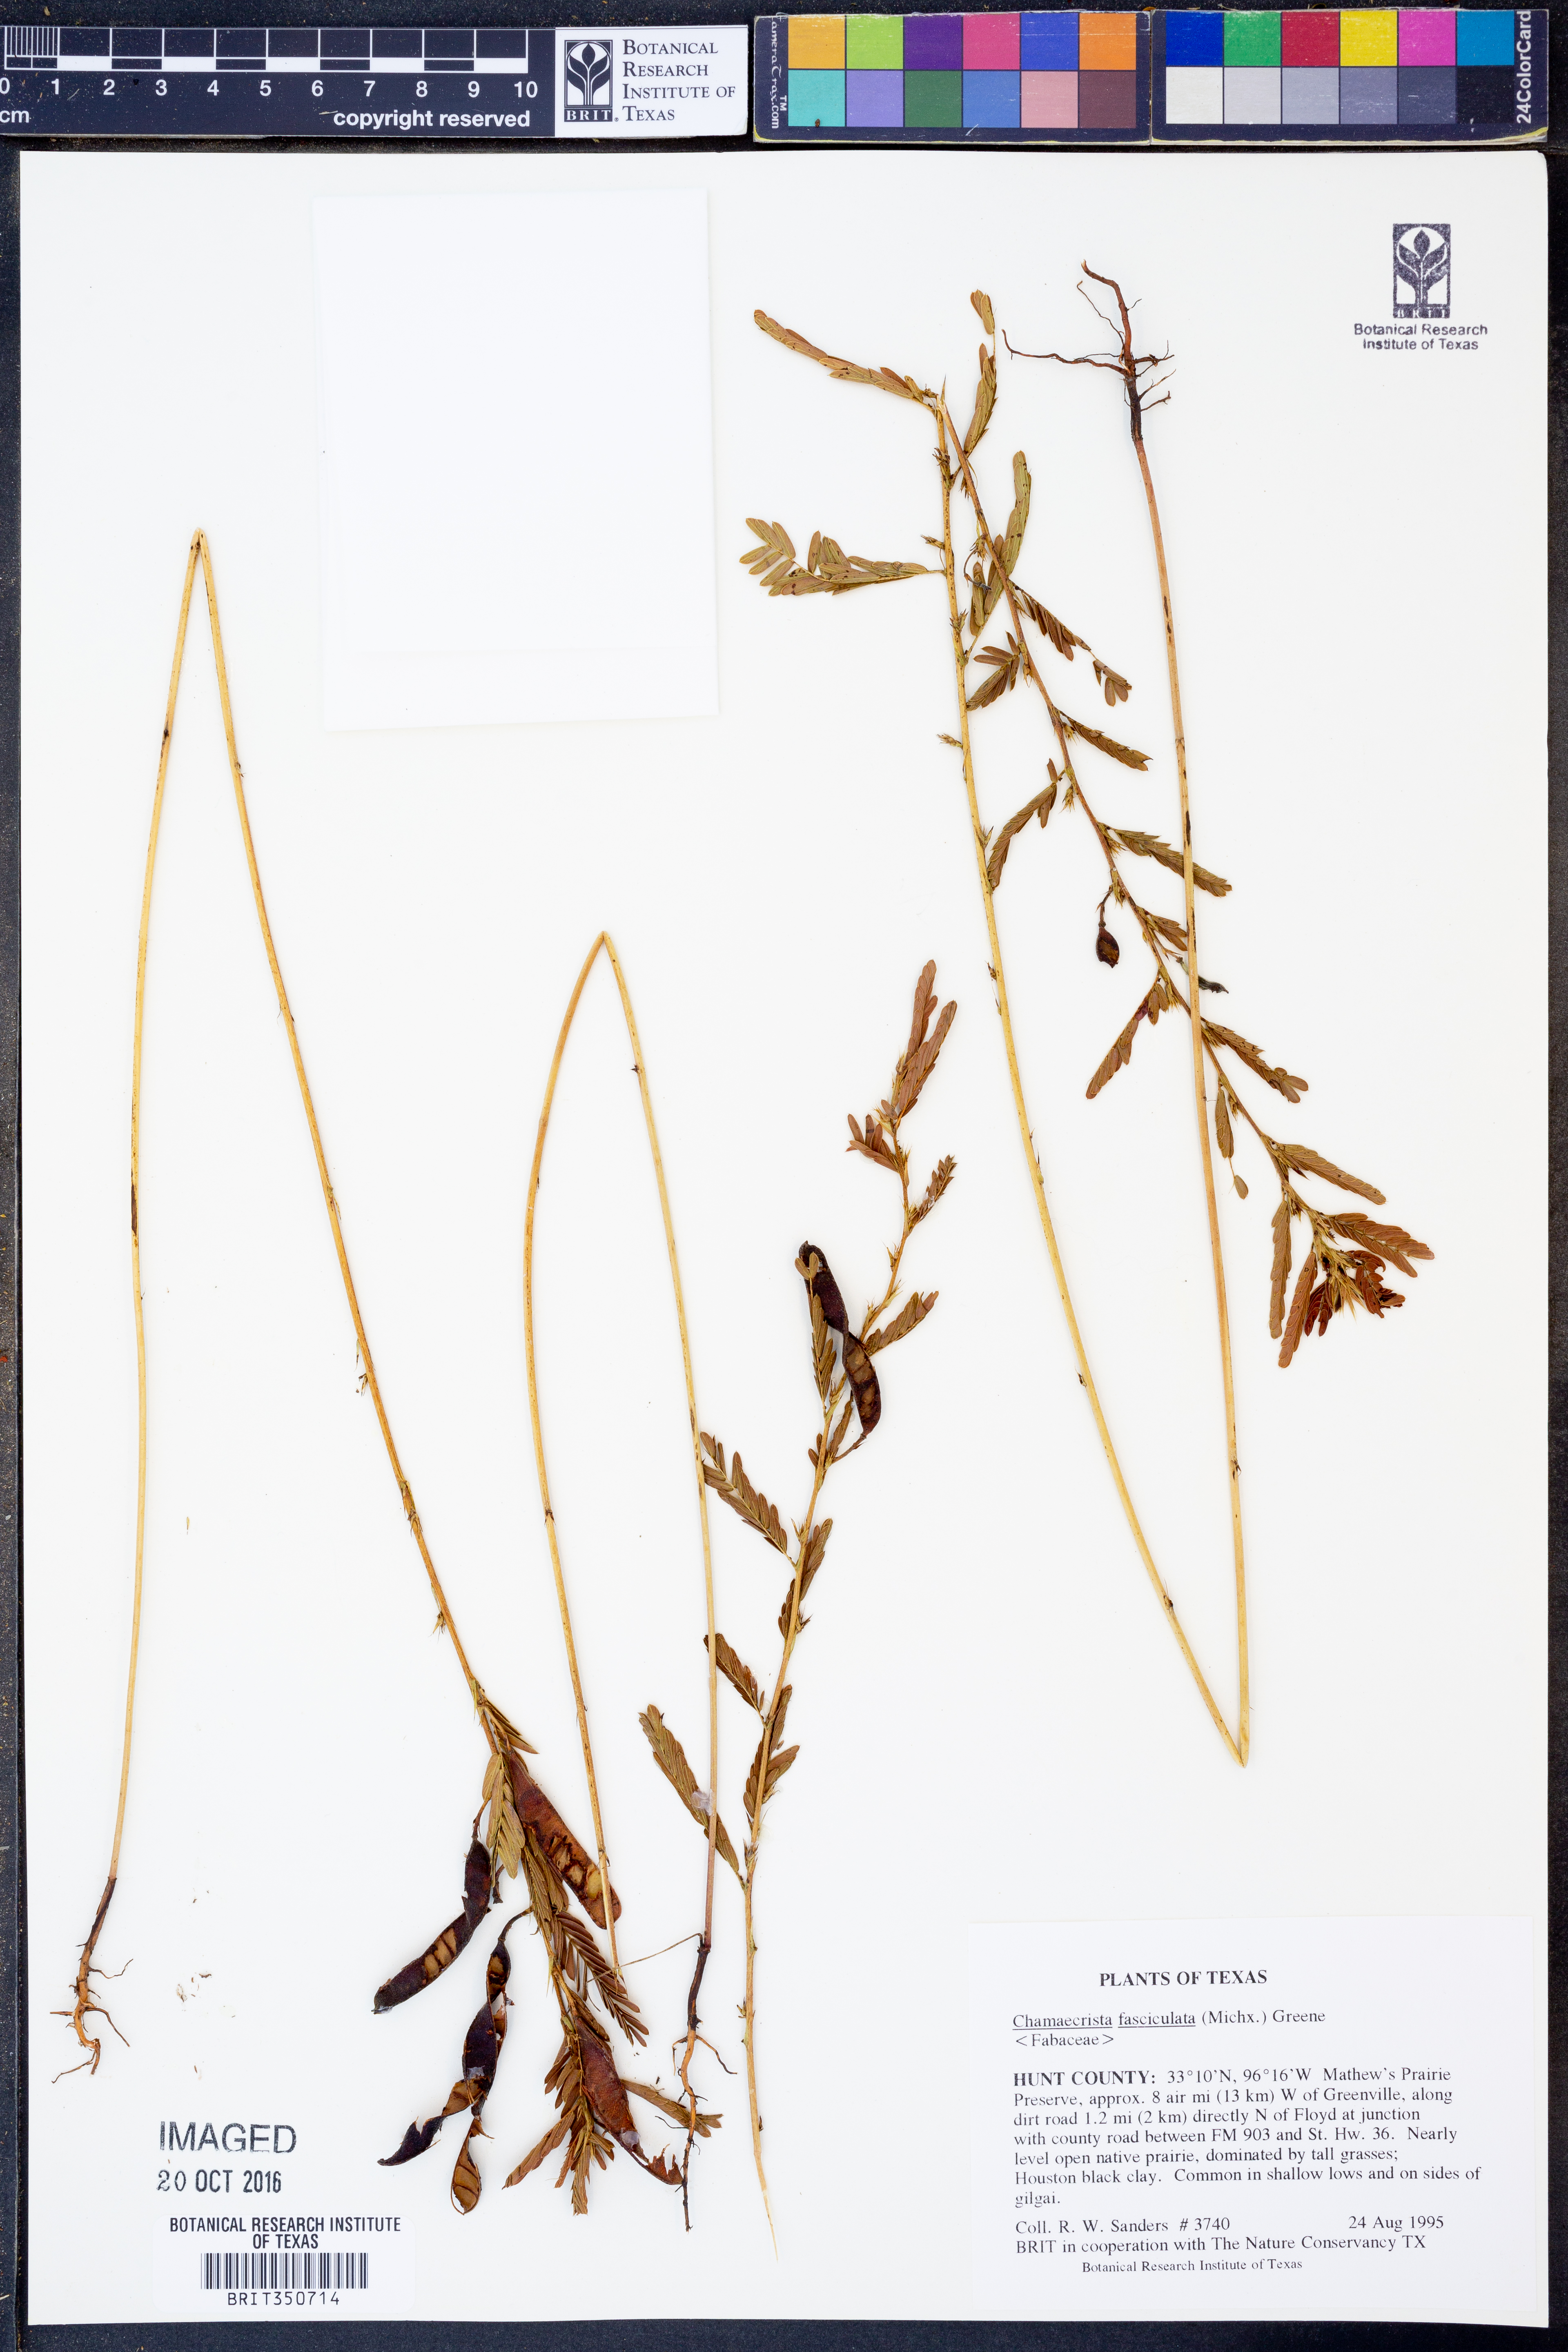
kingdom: Plantae
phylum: Tracheophyta
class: Magnoliopsida
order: Fabales
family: Fabaceae
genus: Chamaecrista
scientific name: Chamaecrista fasciculata
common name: Golden cassia
